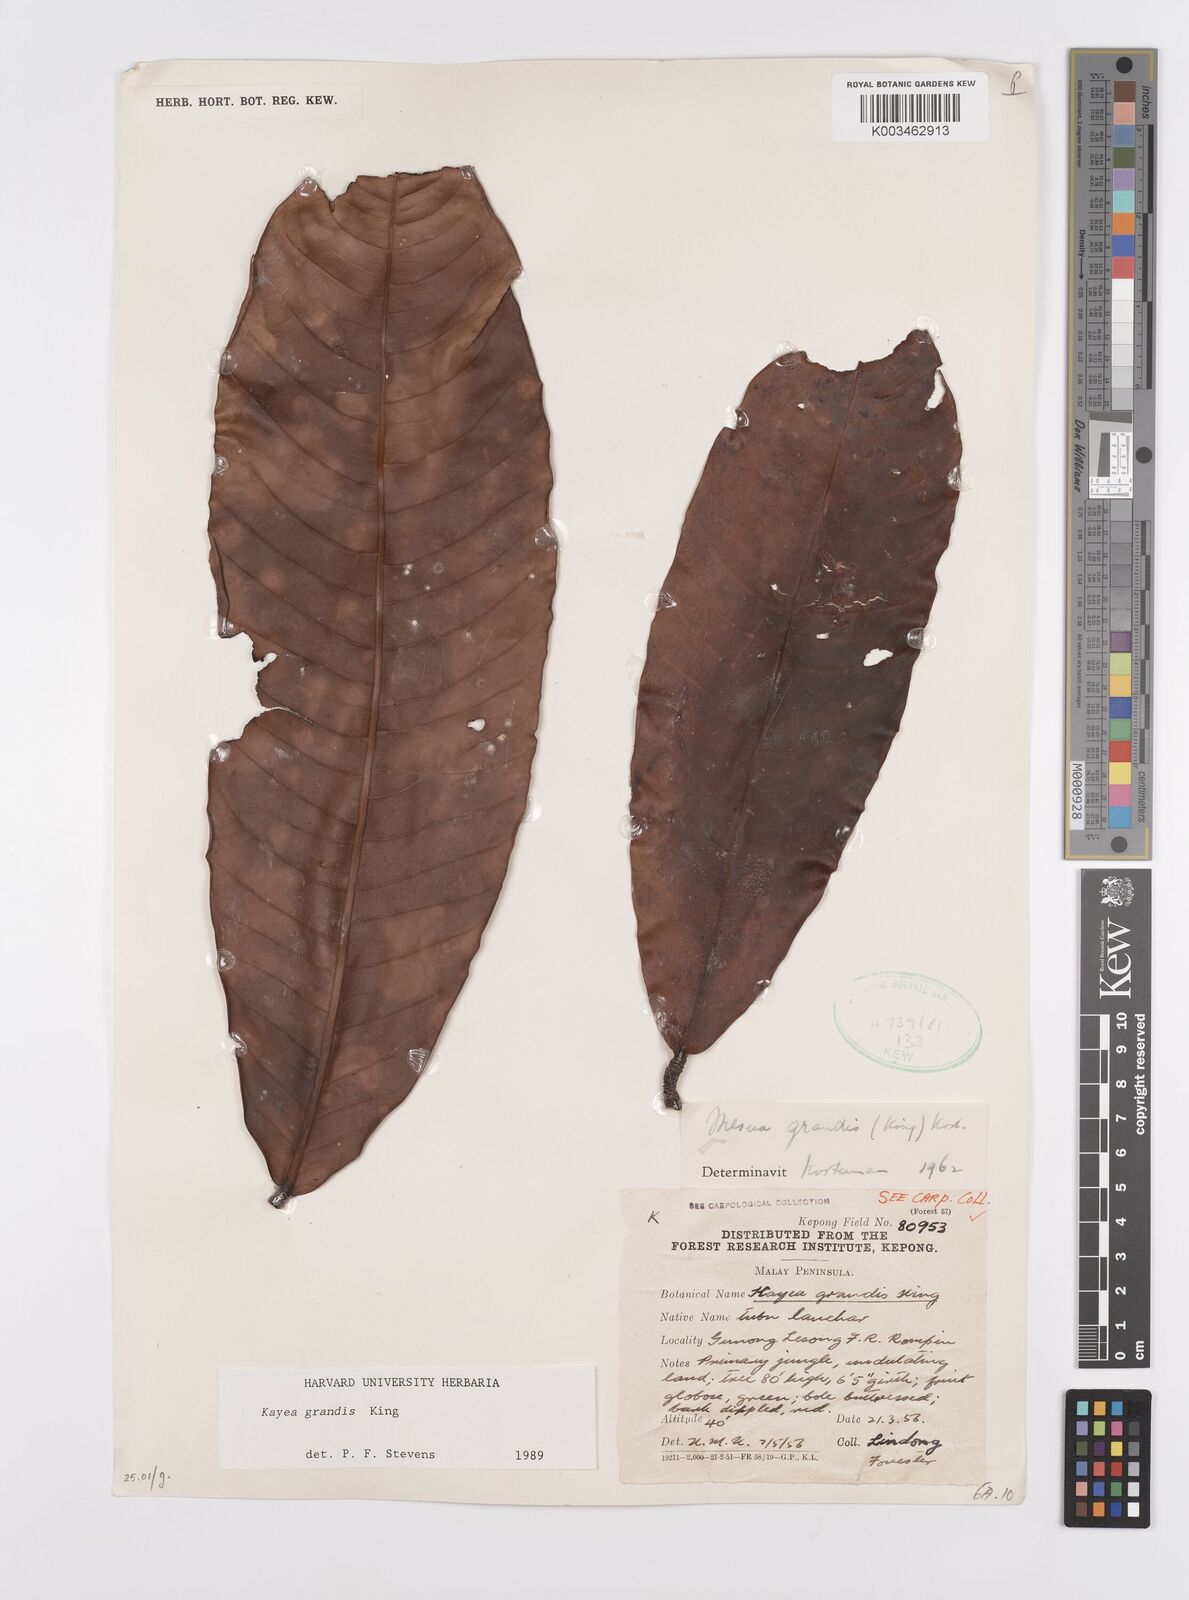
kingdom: Plantae
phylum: Tracheophyta
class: Magnoliopsida
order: Malpighiales
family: Calophyllaceae
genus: Kayea
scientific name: Kayea grandis
